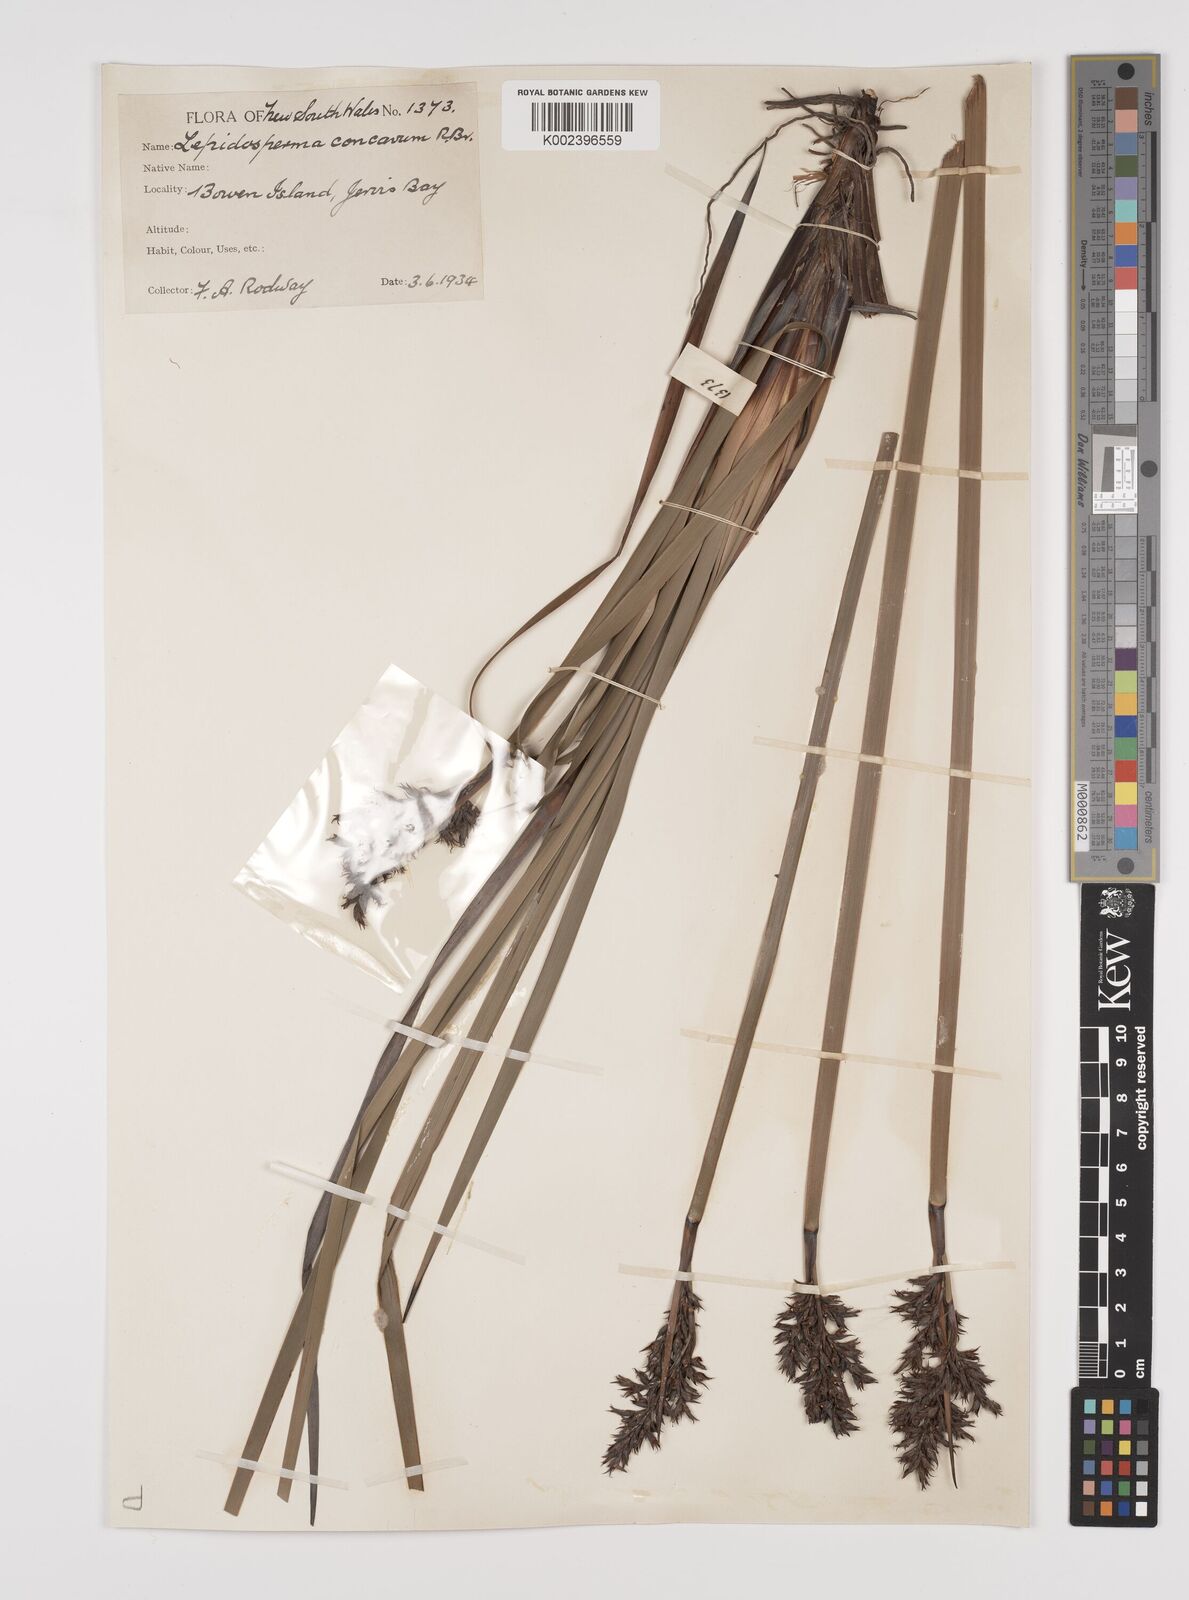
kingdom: Plantae
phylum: Tracheophyta
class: Liliopsida
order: Poales
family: Cyperaceae
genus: Lepidosperma
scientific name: Lepidosperma concavum
